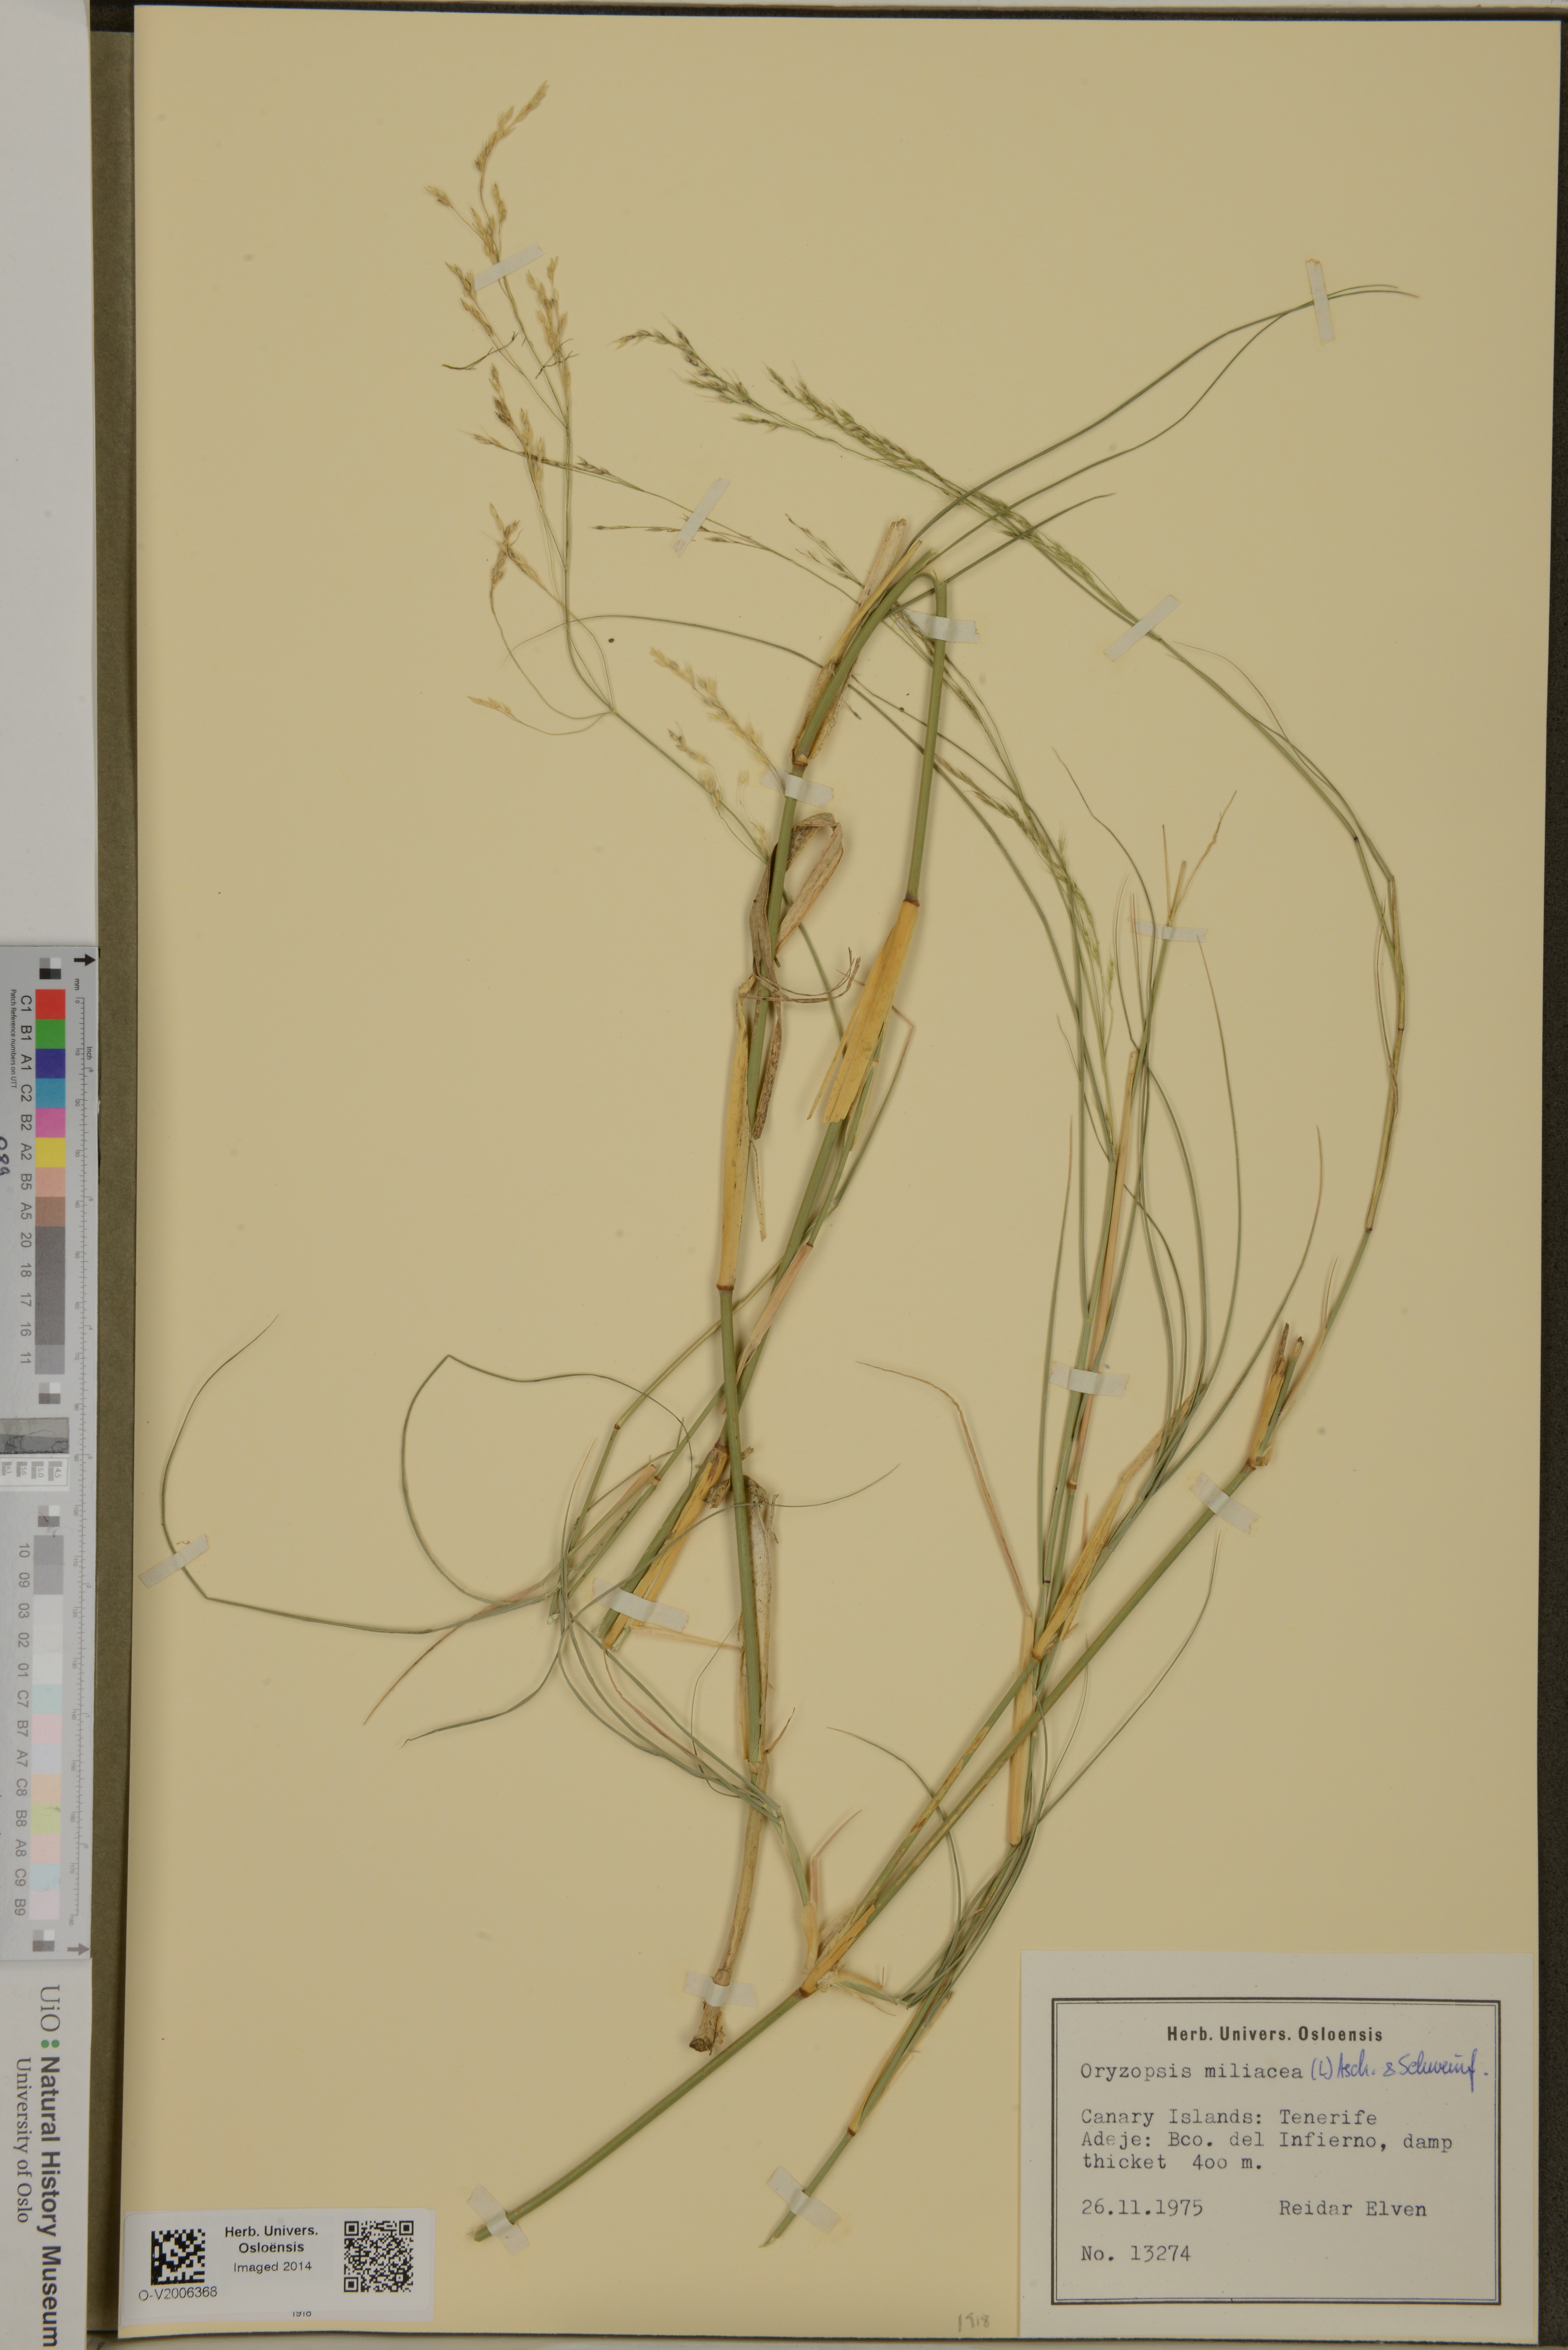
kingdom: Plantae
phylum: Tracheophyta
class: Liliopsida
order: Poales
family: Poaceae
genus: Oloptum
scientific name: Oloptum miliaceum
